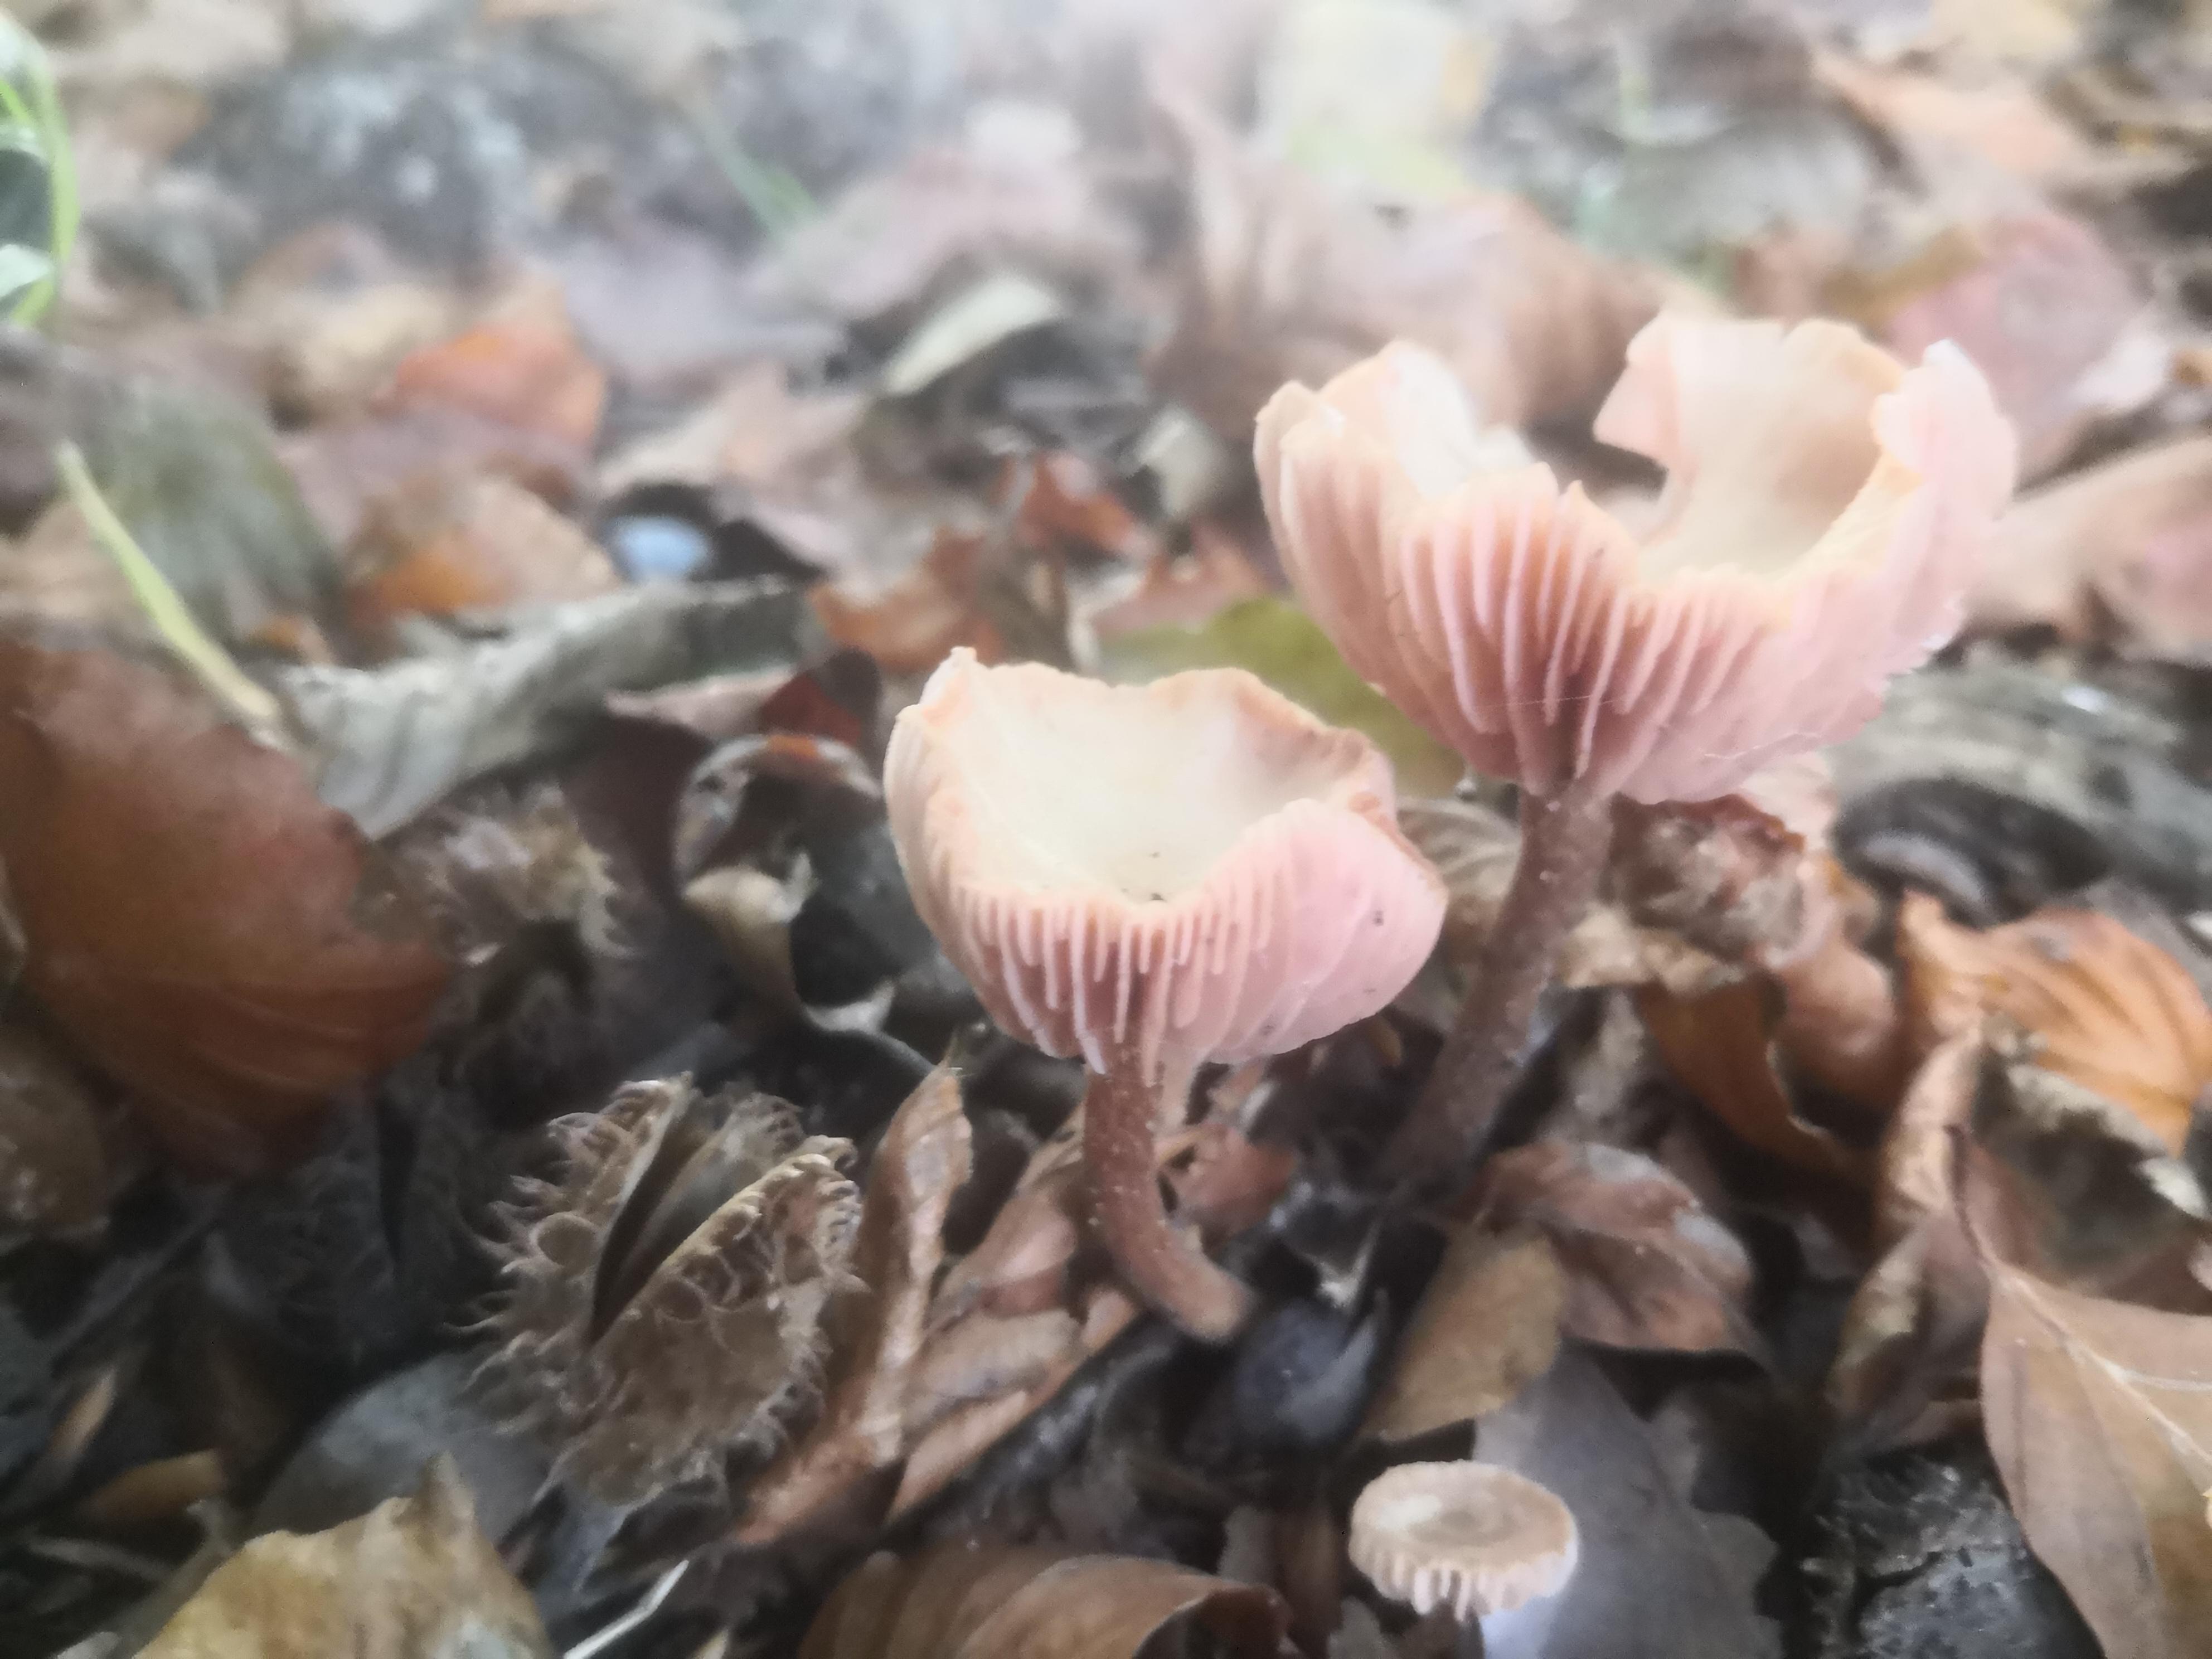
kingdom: Fungi
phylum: Basidiomycota
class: Agaricomycetes
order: Agaricales
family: Hydnangiaceae
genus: Laccaria
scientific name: Laccaria
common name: ametysthat
